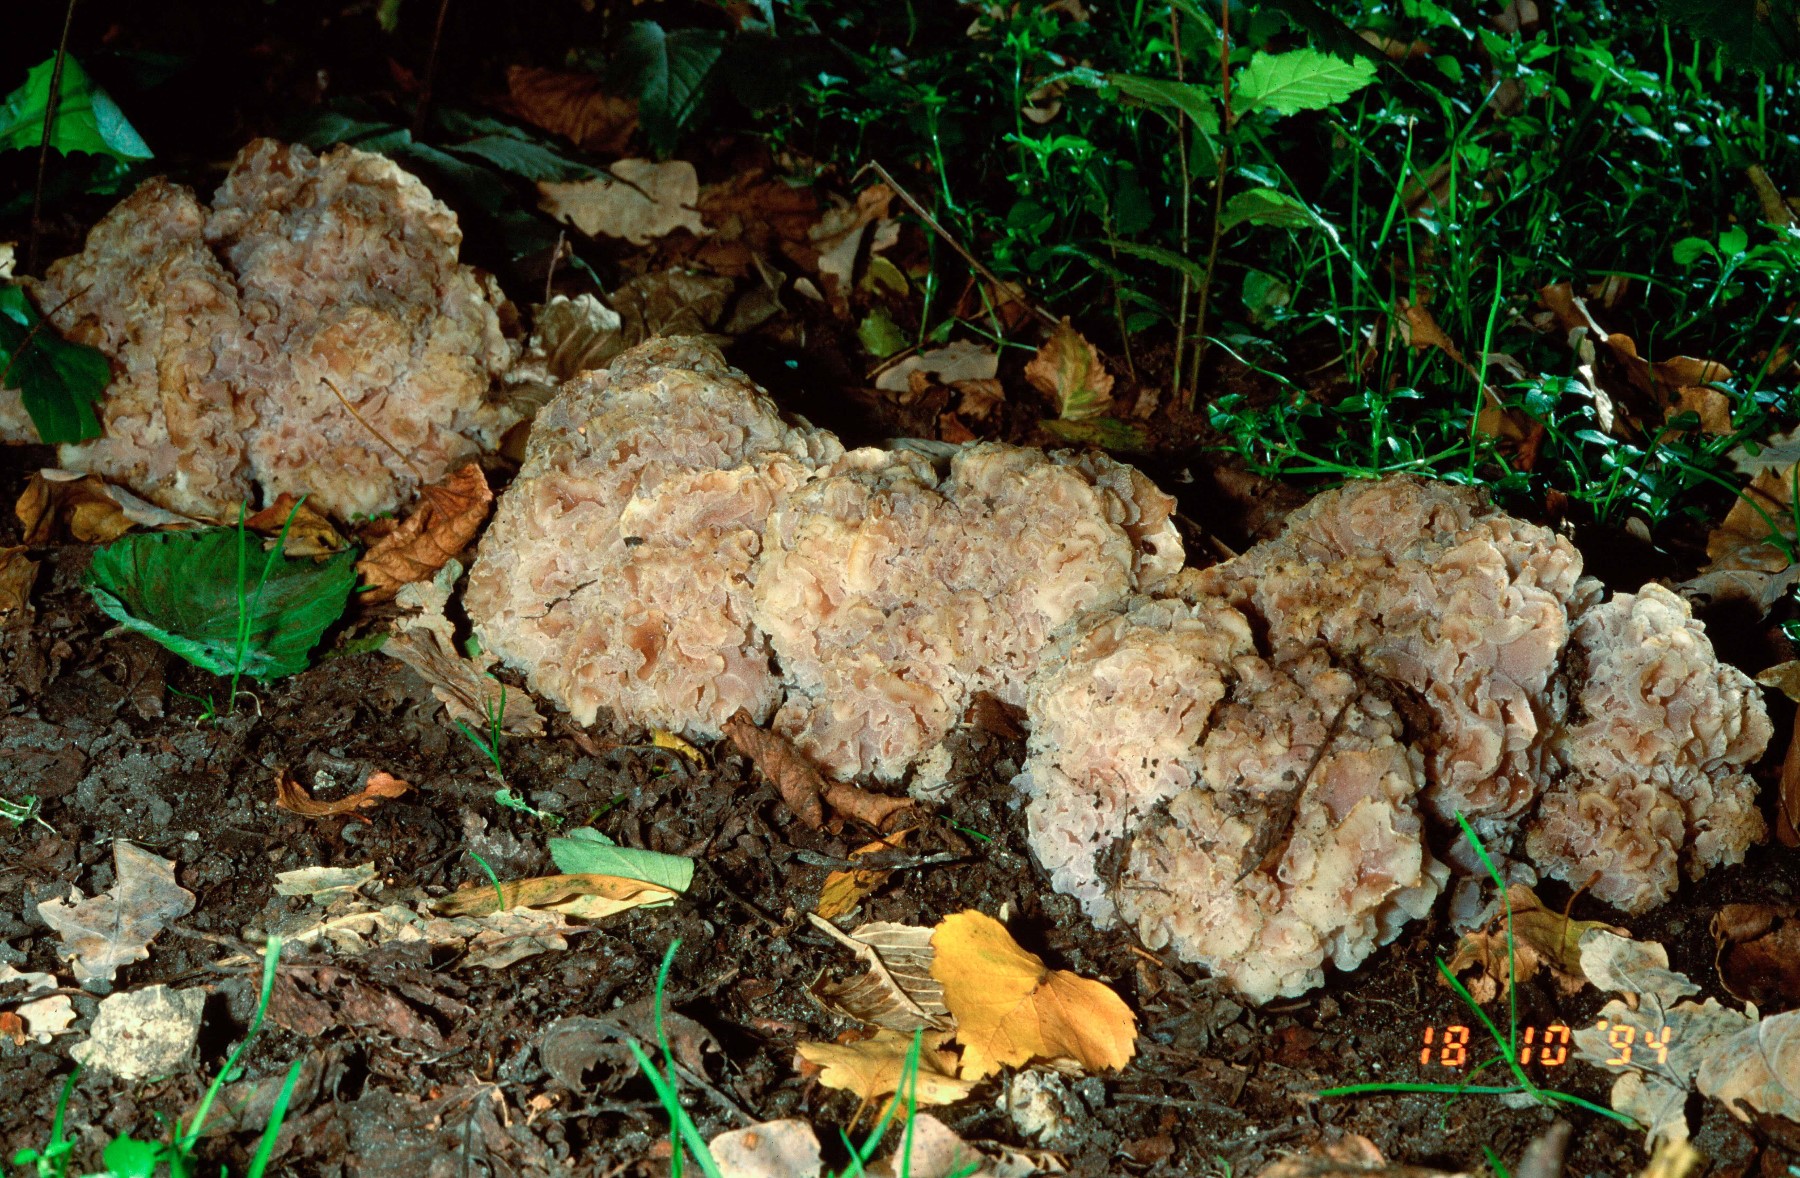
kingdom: Fungi
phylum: Ascomycota
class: Pezizomycetes
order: Pezizales
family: Pezizaceae
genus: Daleomyces
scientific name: Daleomyces phillipsii
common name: blomkåls-bægersvamp
